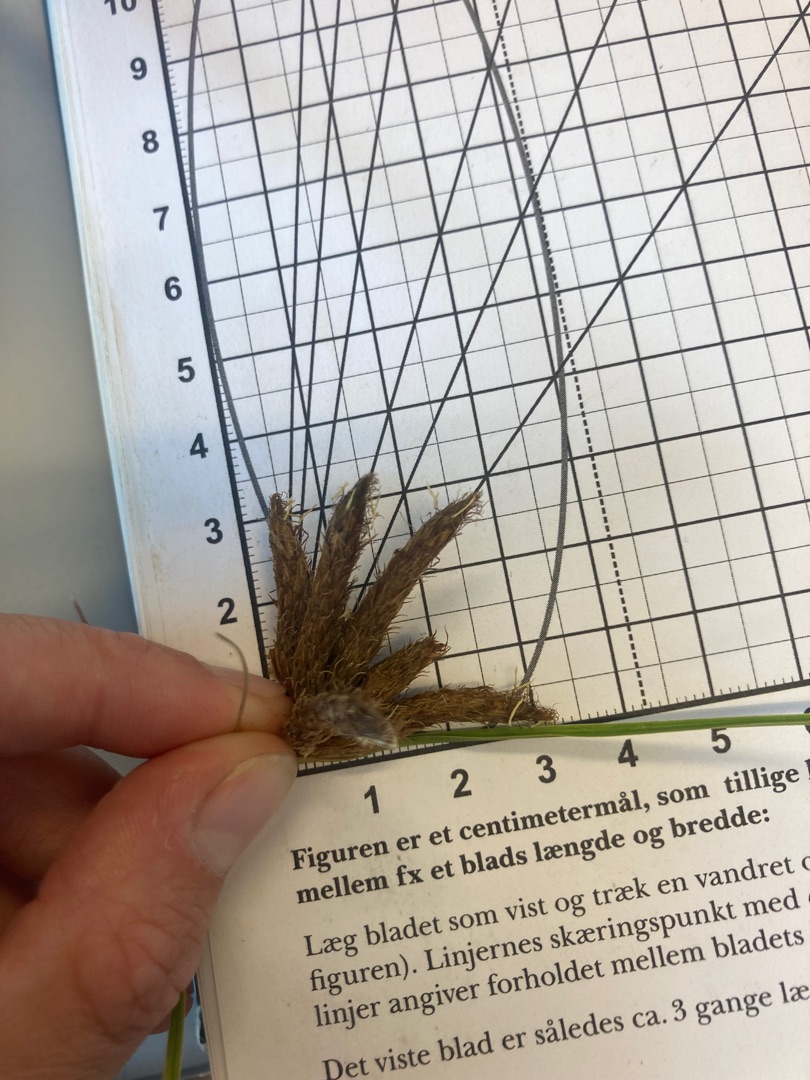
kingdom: Plantae
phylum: Tracheophyta
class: Liliopsida
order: Poales
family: Cyperaceae
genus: Bolboschoenus
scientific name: Bolboschoenus maritimus
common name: Strand-kogleaks
